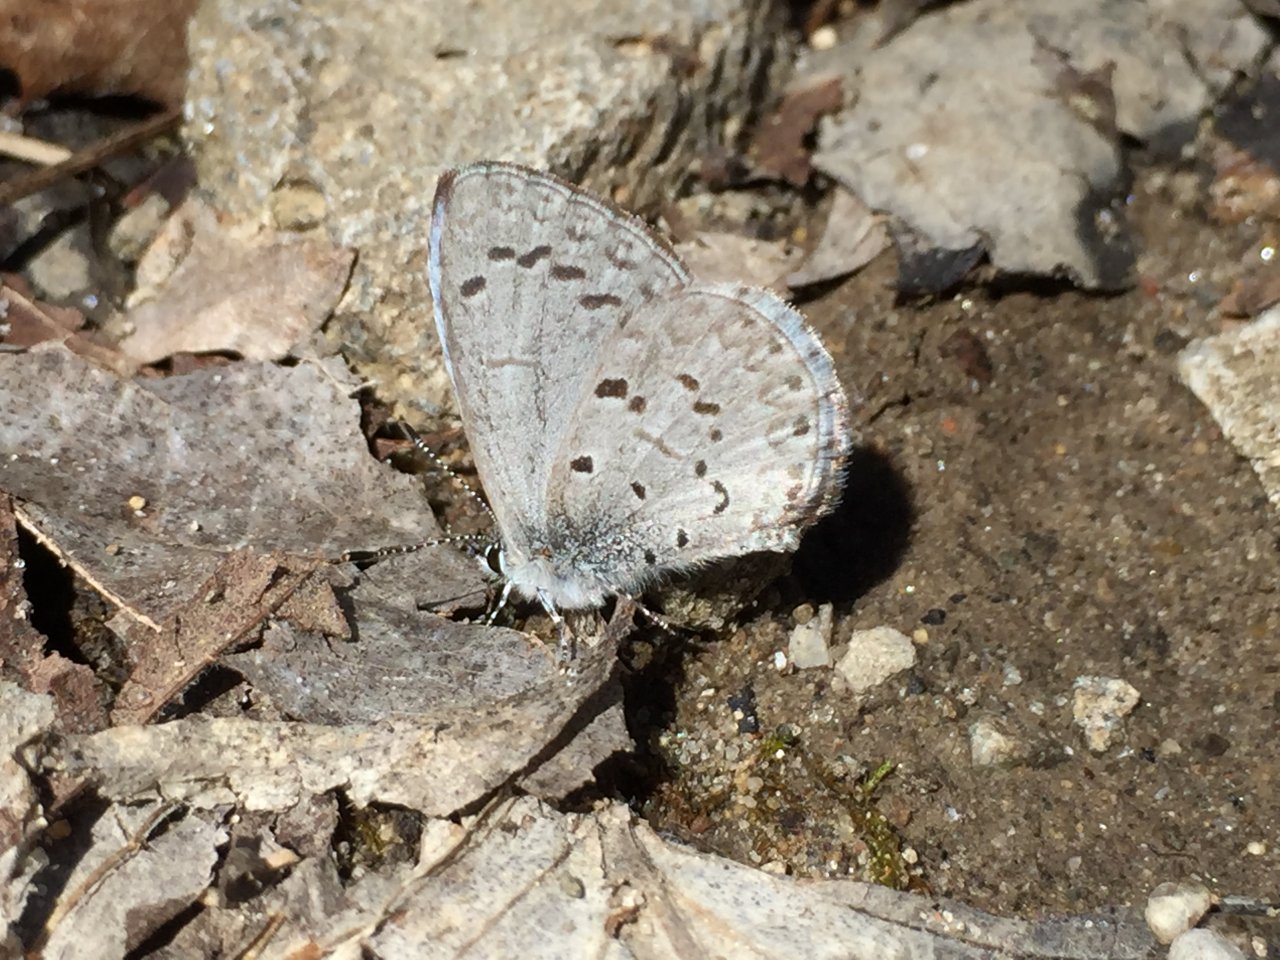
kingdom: Animalia
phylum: Arthropoda
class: Insecta
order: Lepidoptera
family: Lycaenidae
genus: Celastrina
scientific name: Celastrina ladon
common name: Spring Azure
